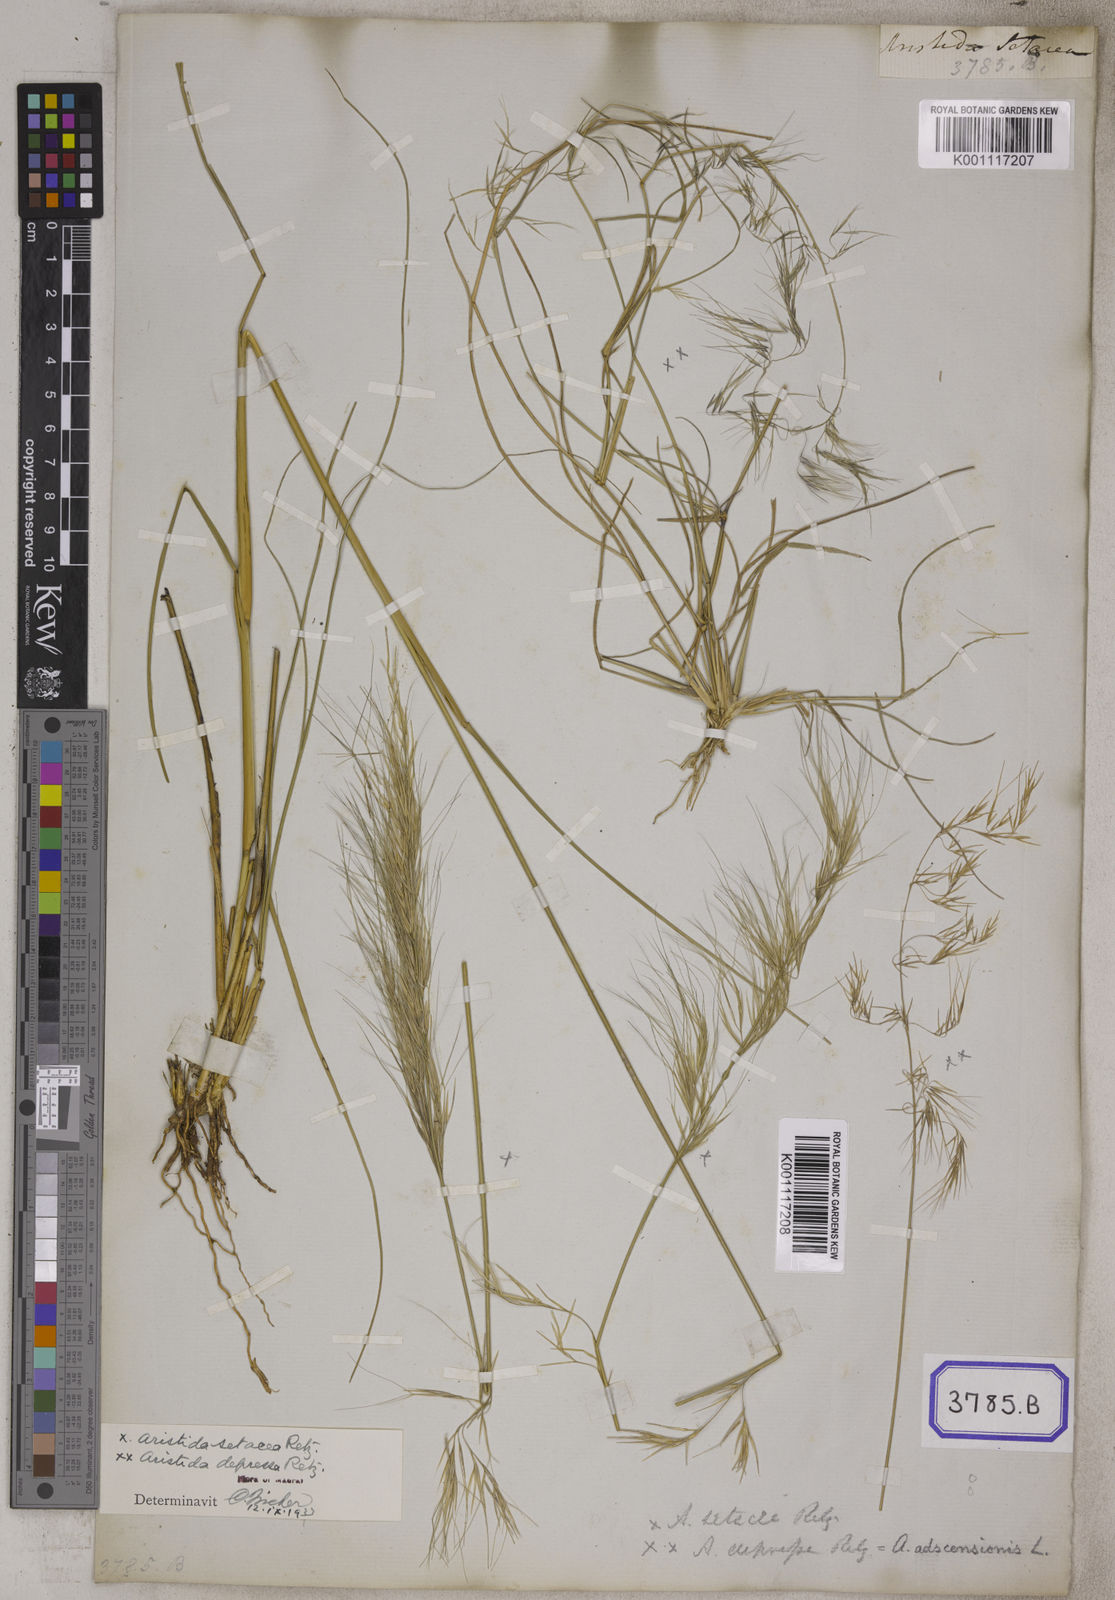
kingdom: Plantae
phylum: Tracheophyta
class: Liliopsida
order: Poales
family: Poaceae
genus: Aristida
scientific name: Aristida setacea
